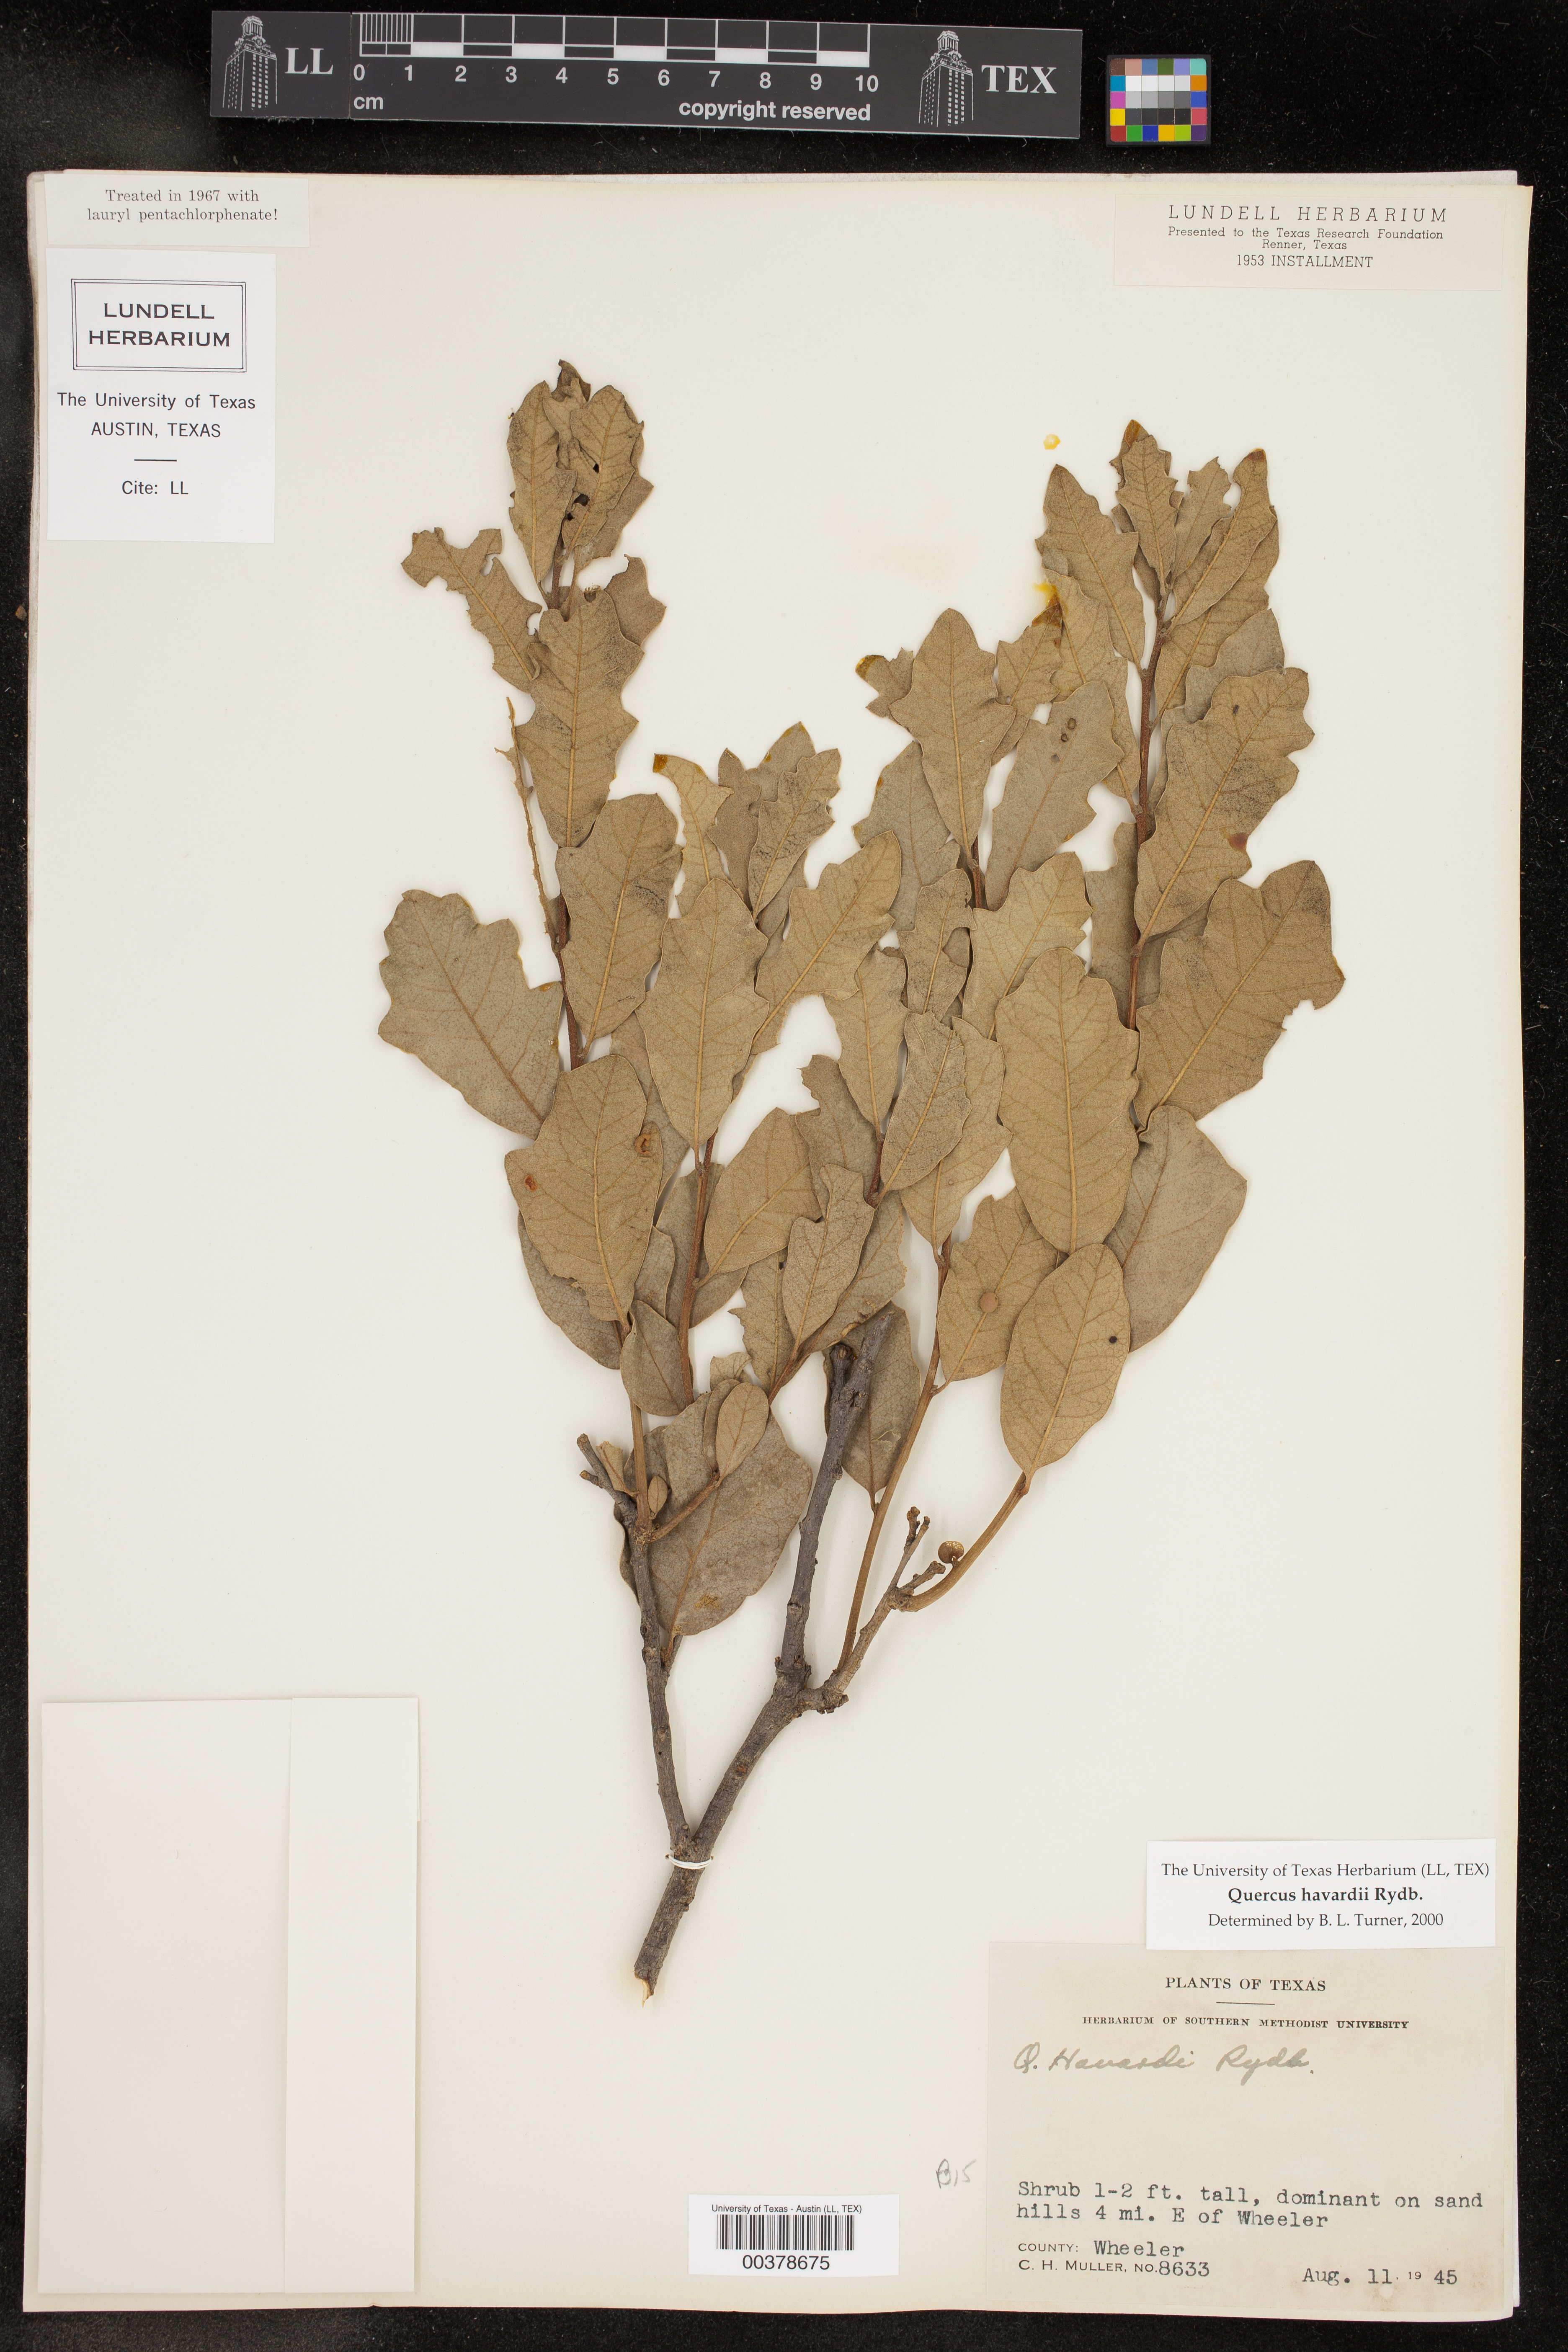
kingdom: Plantae
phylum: Tracheophyta
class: Magnoliopsida
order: Fagales
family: Fagaceae
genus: Quercus
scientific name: Quercus havardii
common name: Shinnery oak
